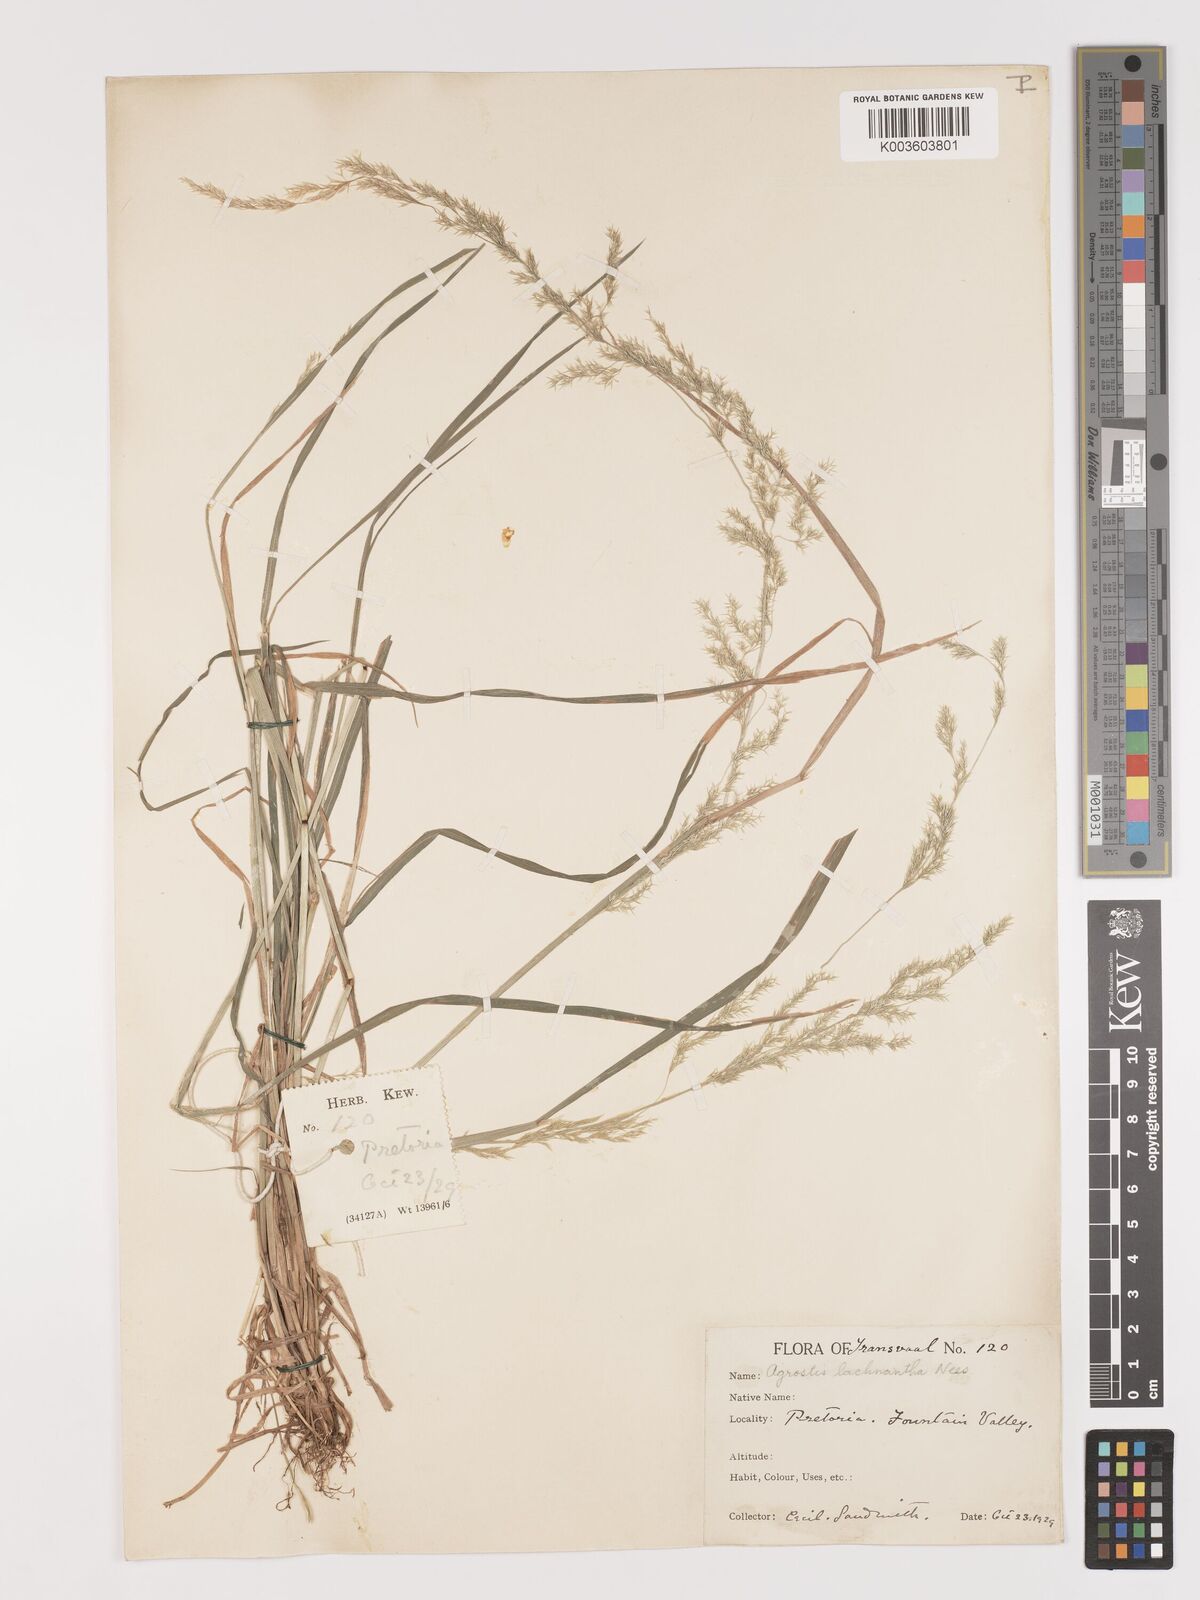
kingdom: Plantae
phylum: Tracheophyta
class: Liliopsida
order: Poales
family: Poaceae
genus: Lachnagrostis
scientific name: Lachnagrostis lachnantha
